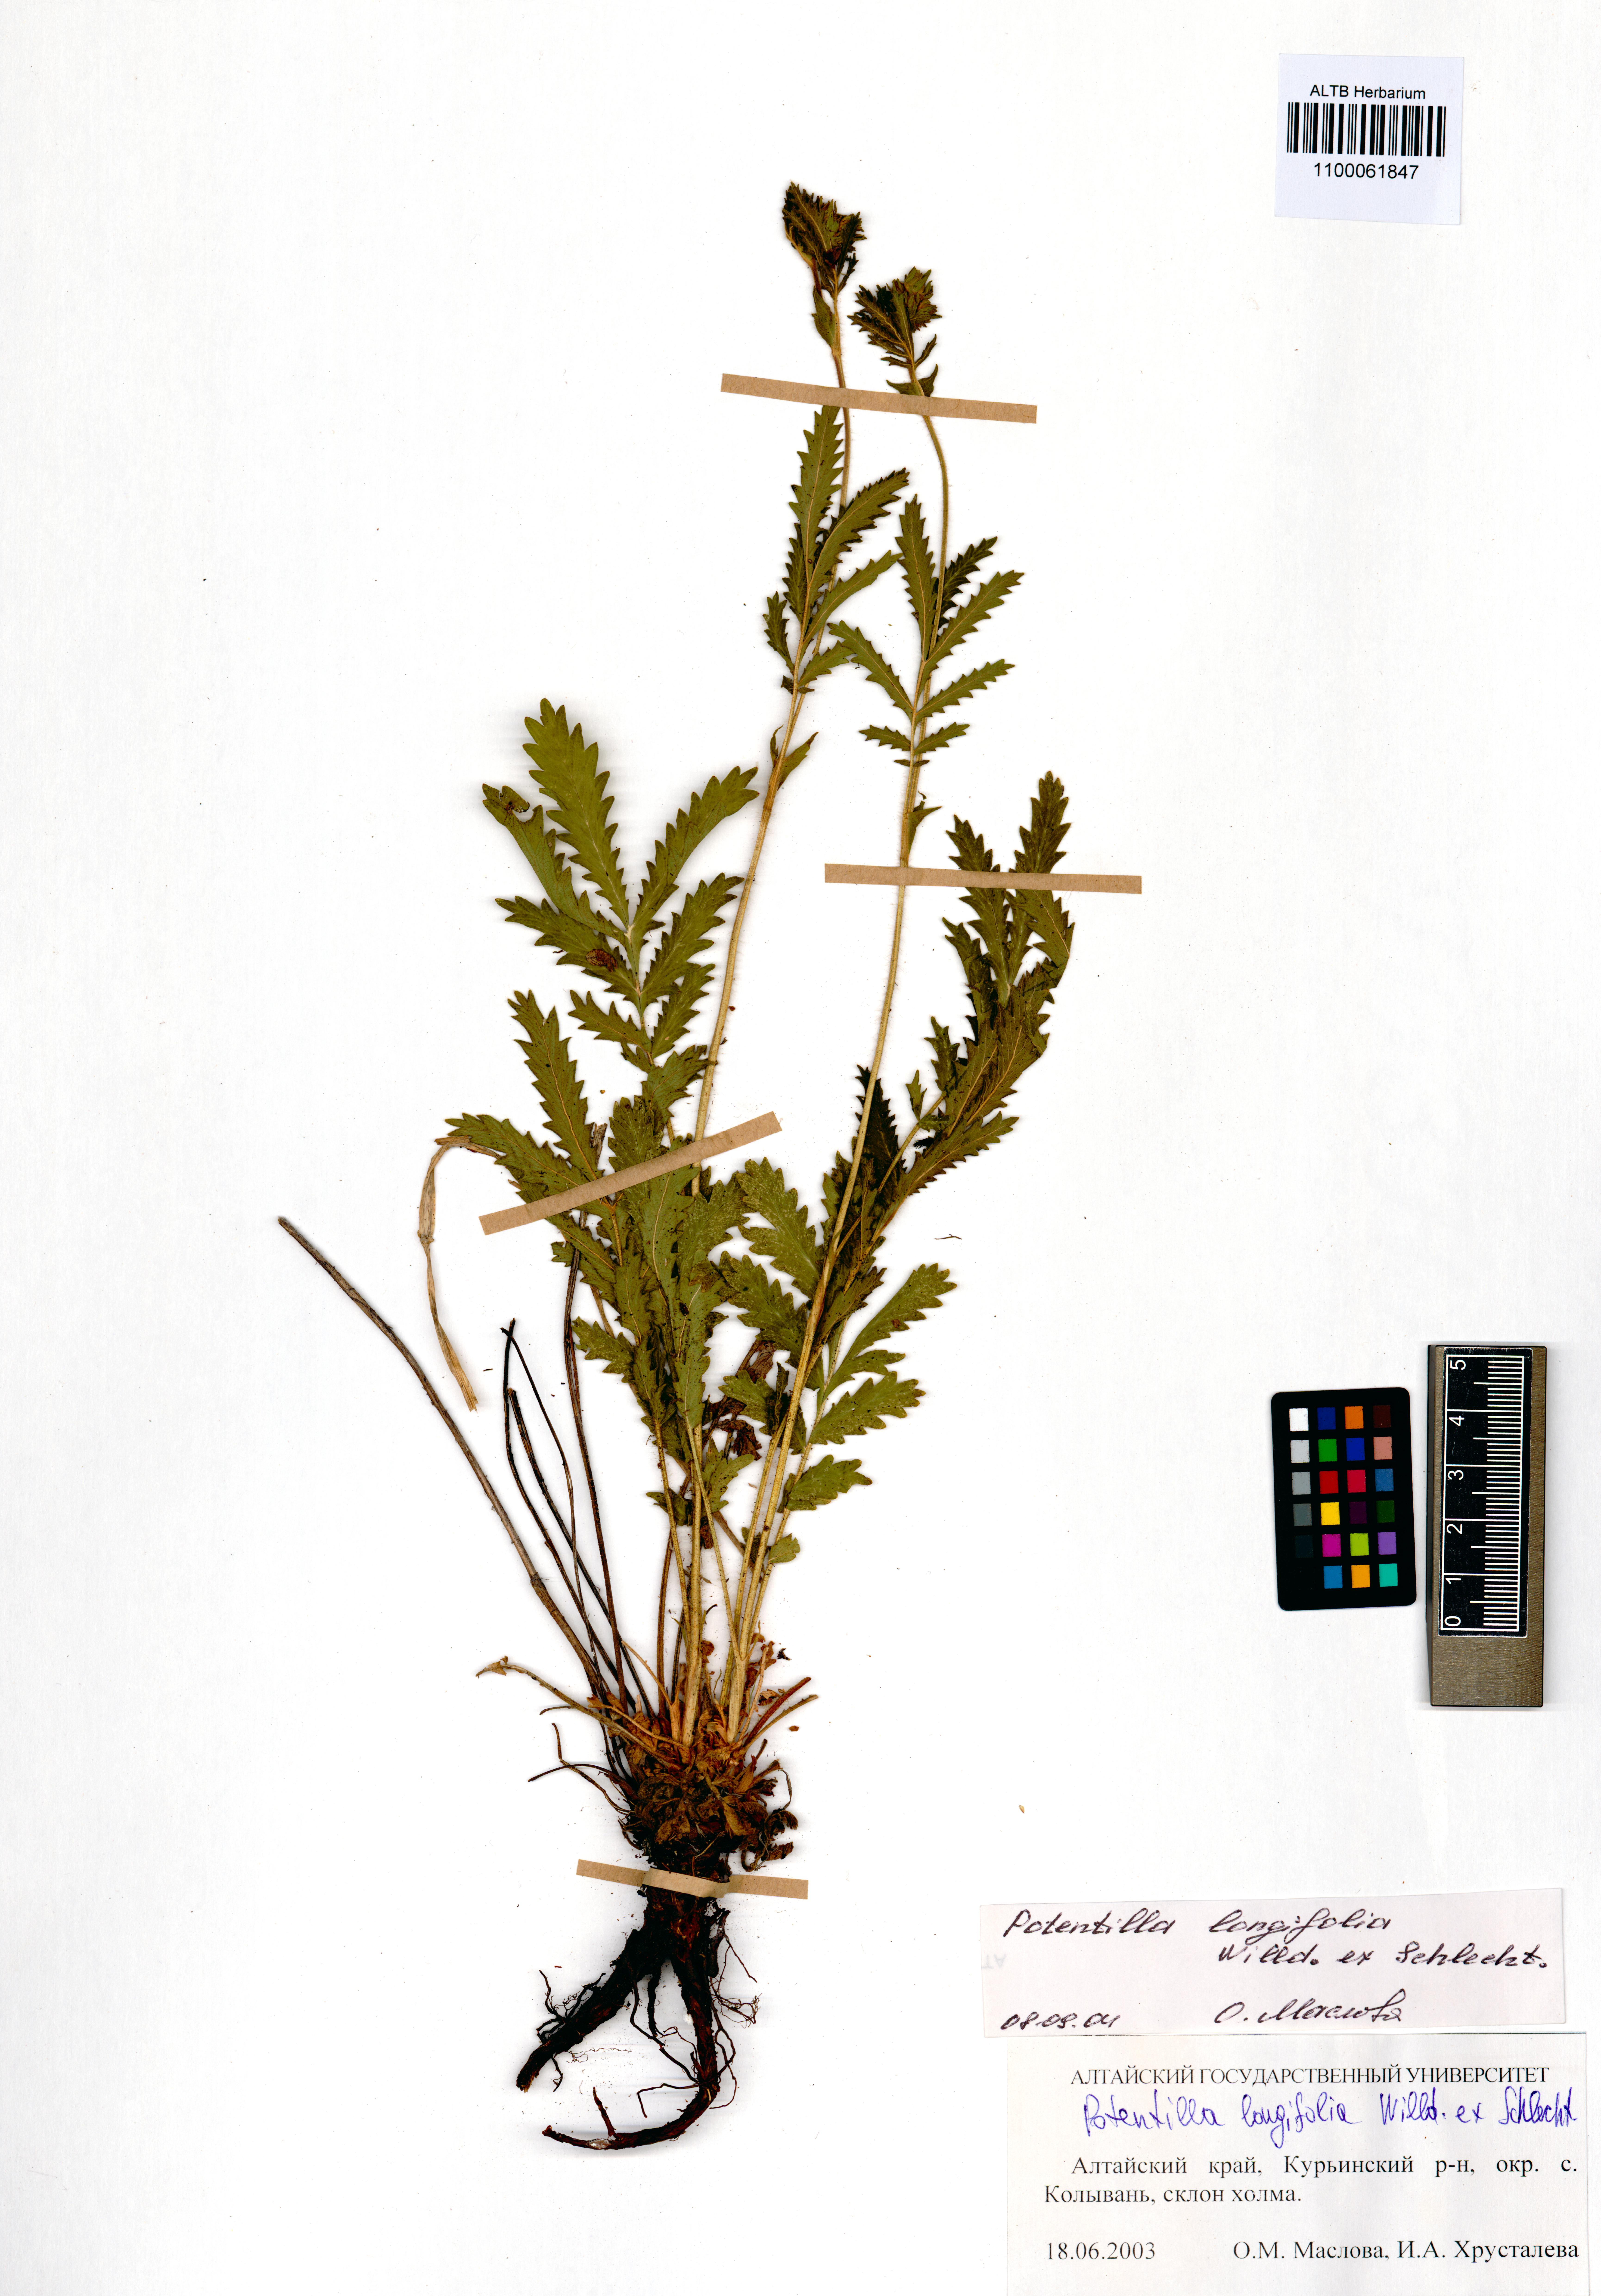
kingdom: Plantae
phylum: Tracheophyta
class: Magnoliopsida
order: Rosales
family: Rosaceae
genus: Potentilla
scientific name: Potentilla longifolia
